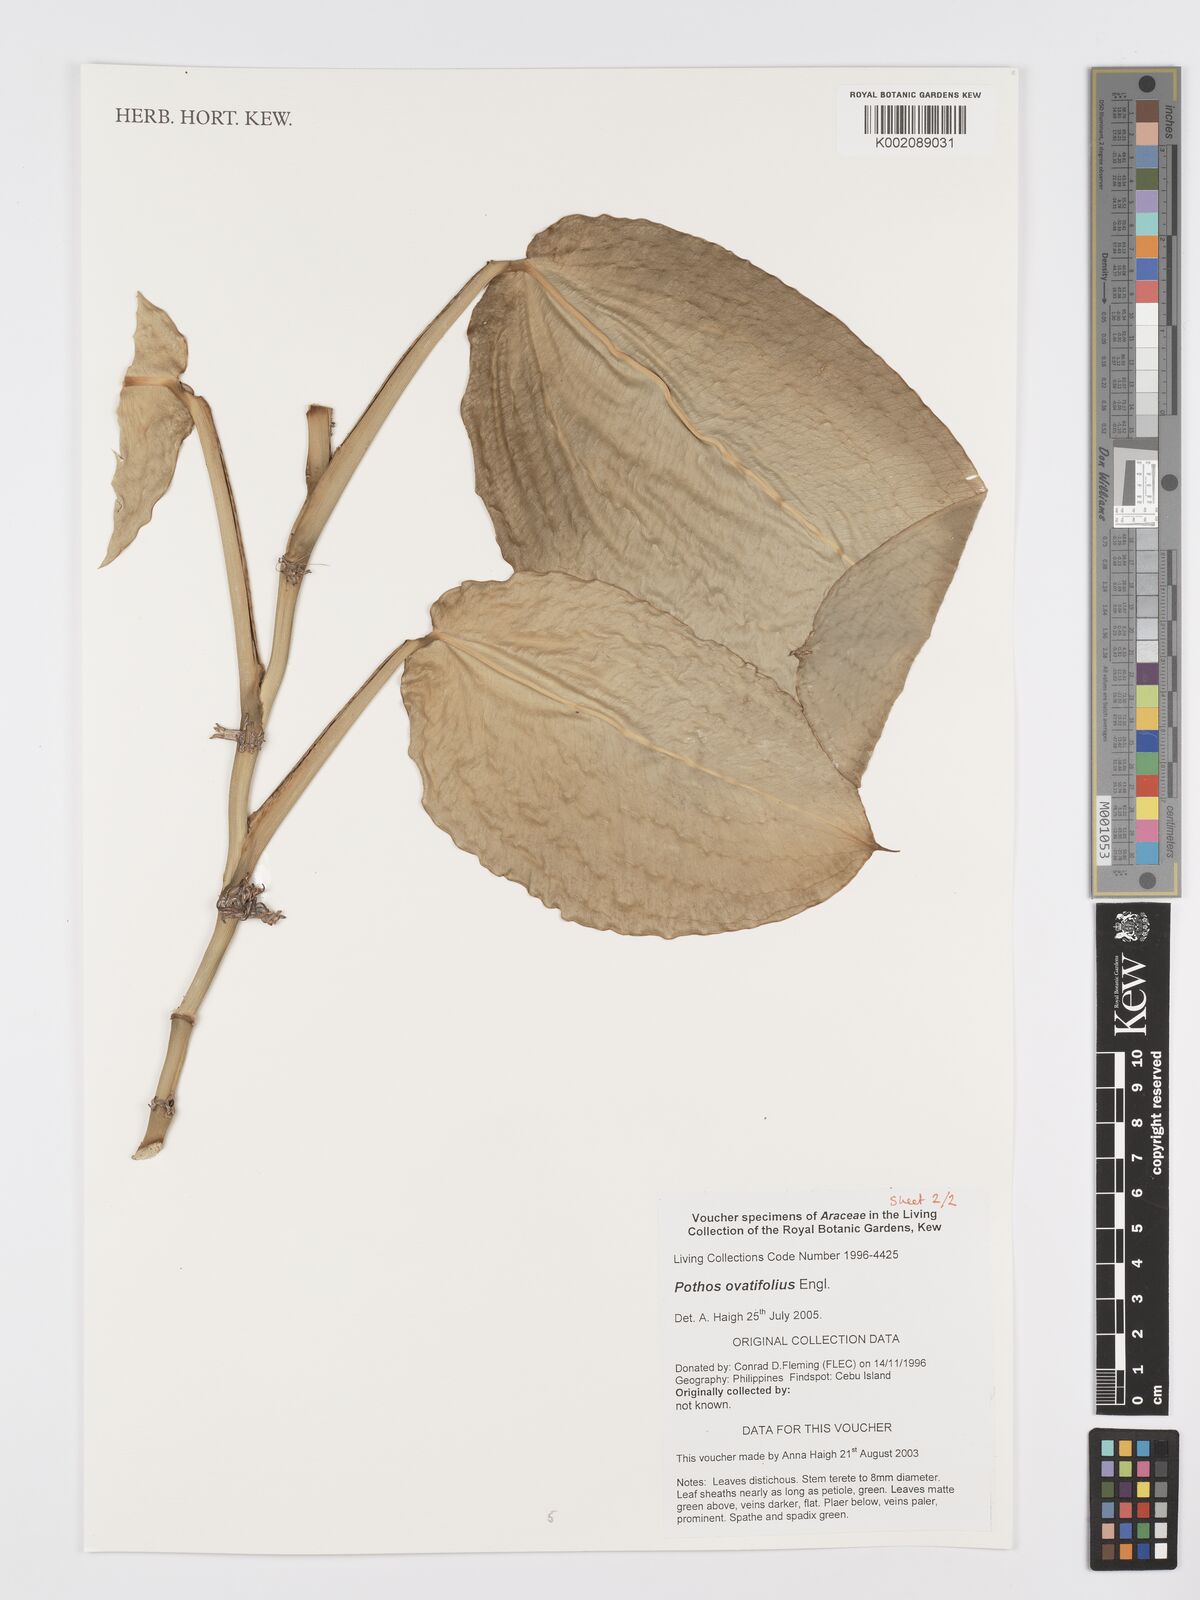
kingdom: Plantae
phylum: Tracheophyta
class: Liliopsida
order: Alismatales
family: Araceae
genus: Pothos
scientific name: Pothos ovatifolius
